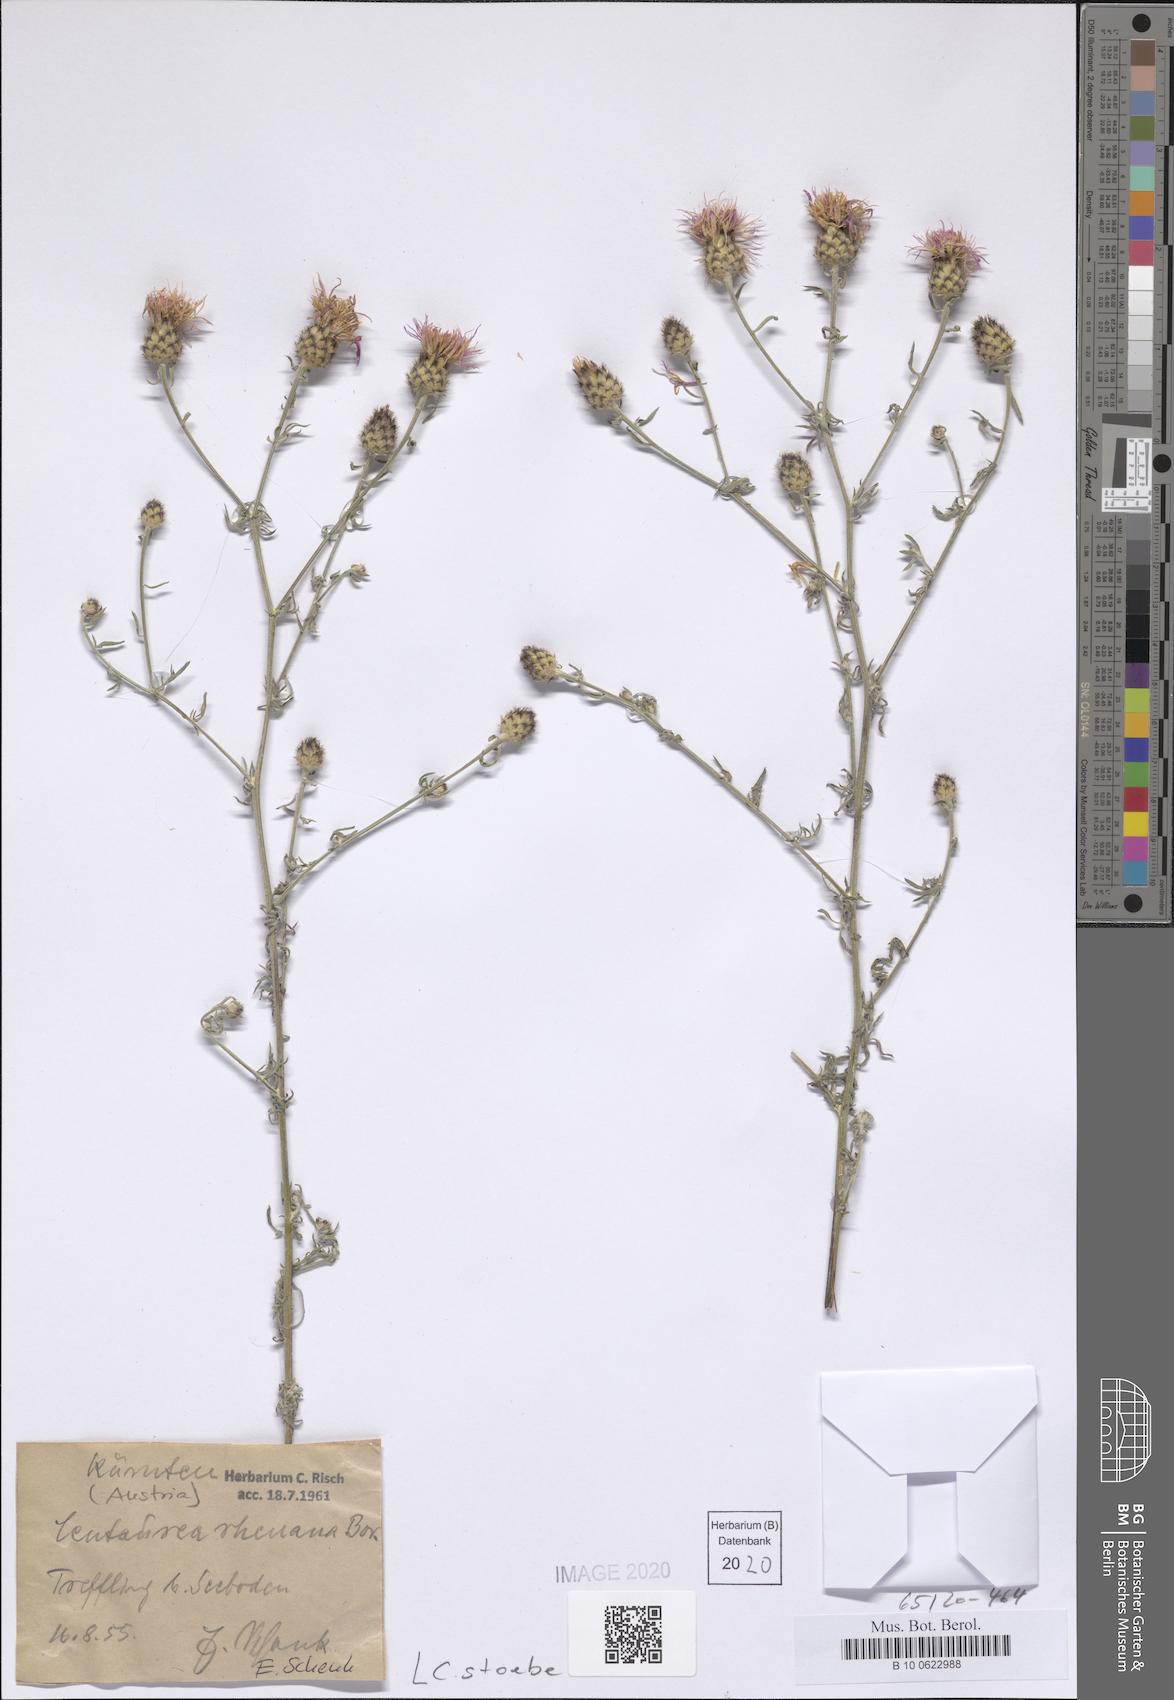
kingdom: Plantae
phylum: Tracheophyta
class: Magnoliopsida
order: Asterales
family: Asteraceae
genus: Centaurea
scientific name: Centaurea stoebe
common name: Spotted knapweed
